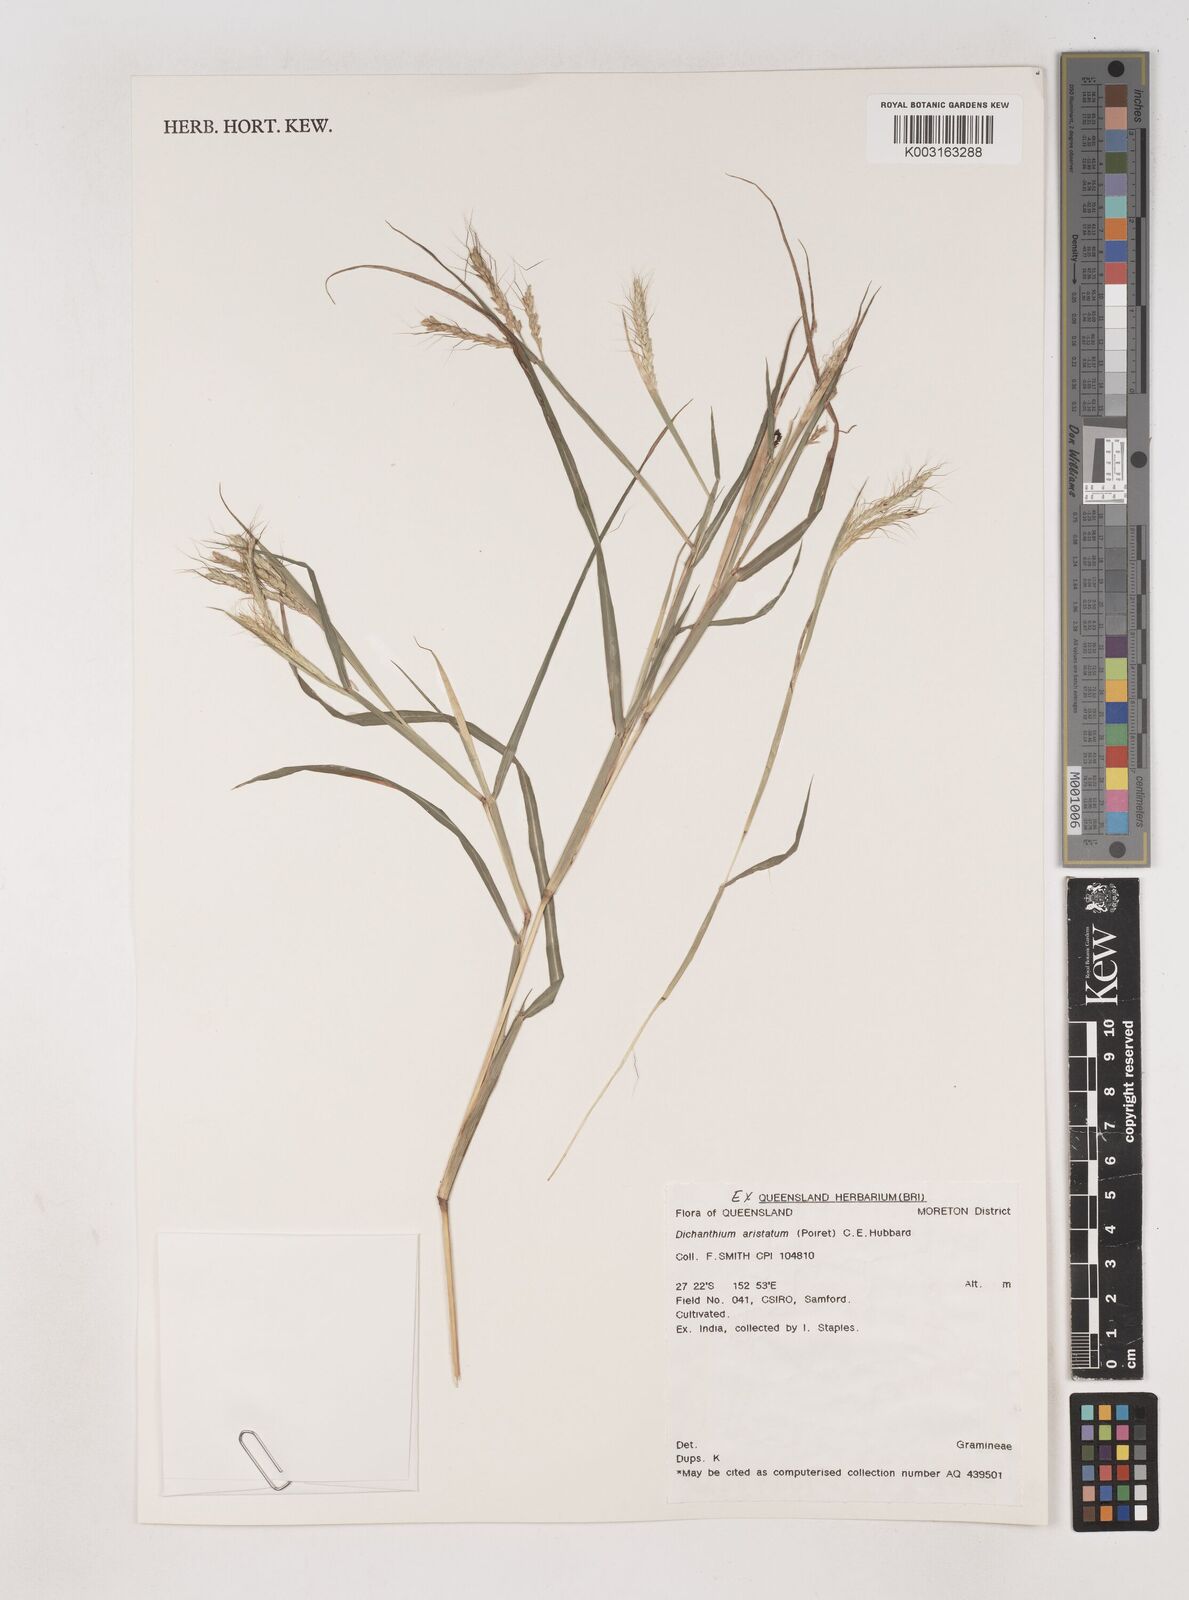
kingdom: Plantae
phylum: Tracheophyta
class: Liliopsida
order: Poales
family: Poaceae
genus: Dichanthium
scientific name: Dichanthium aristatum
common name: Angleton bluestem
